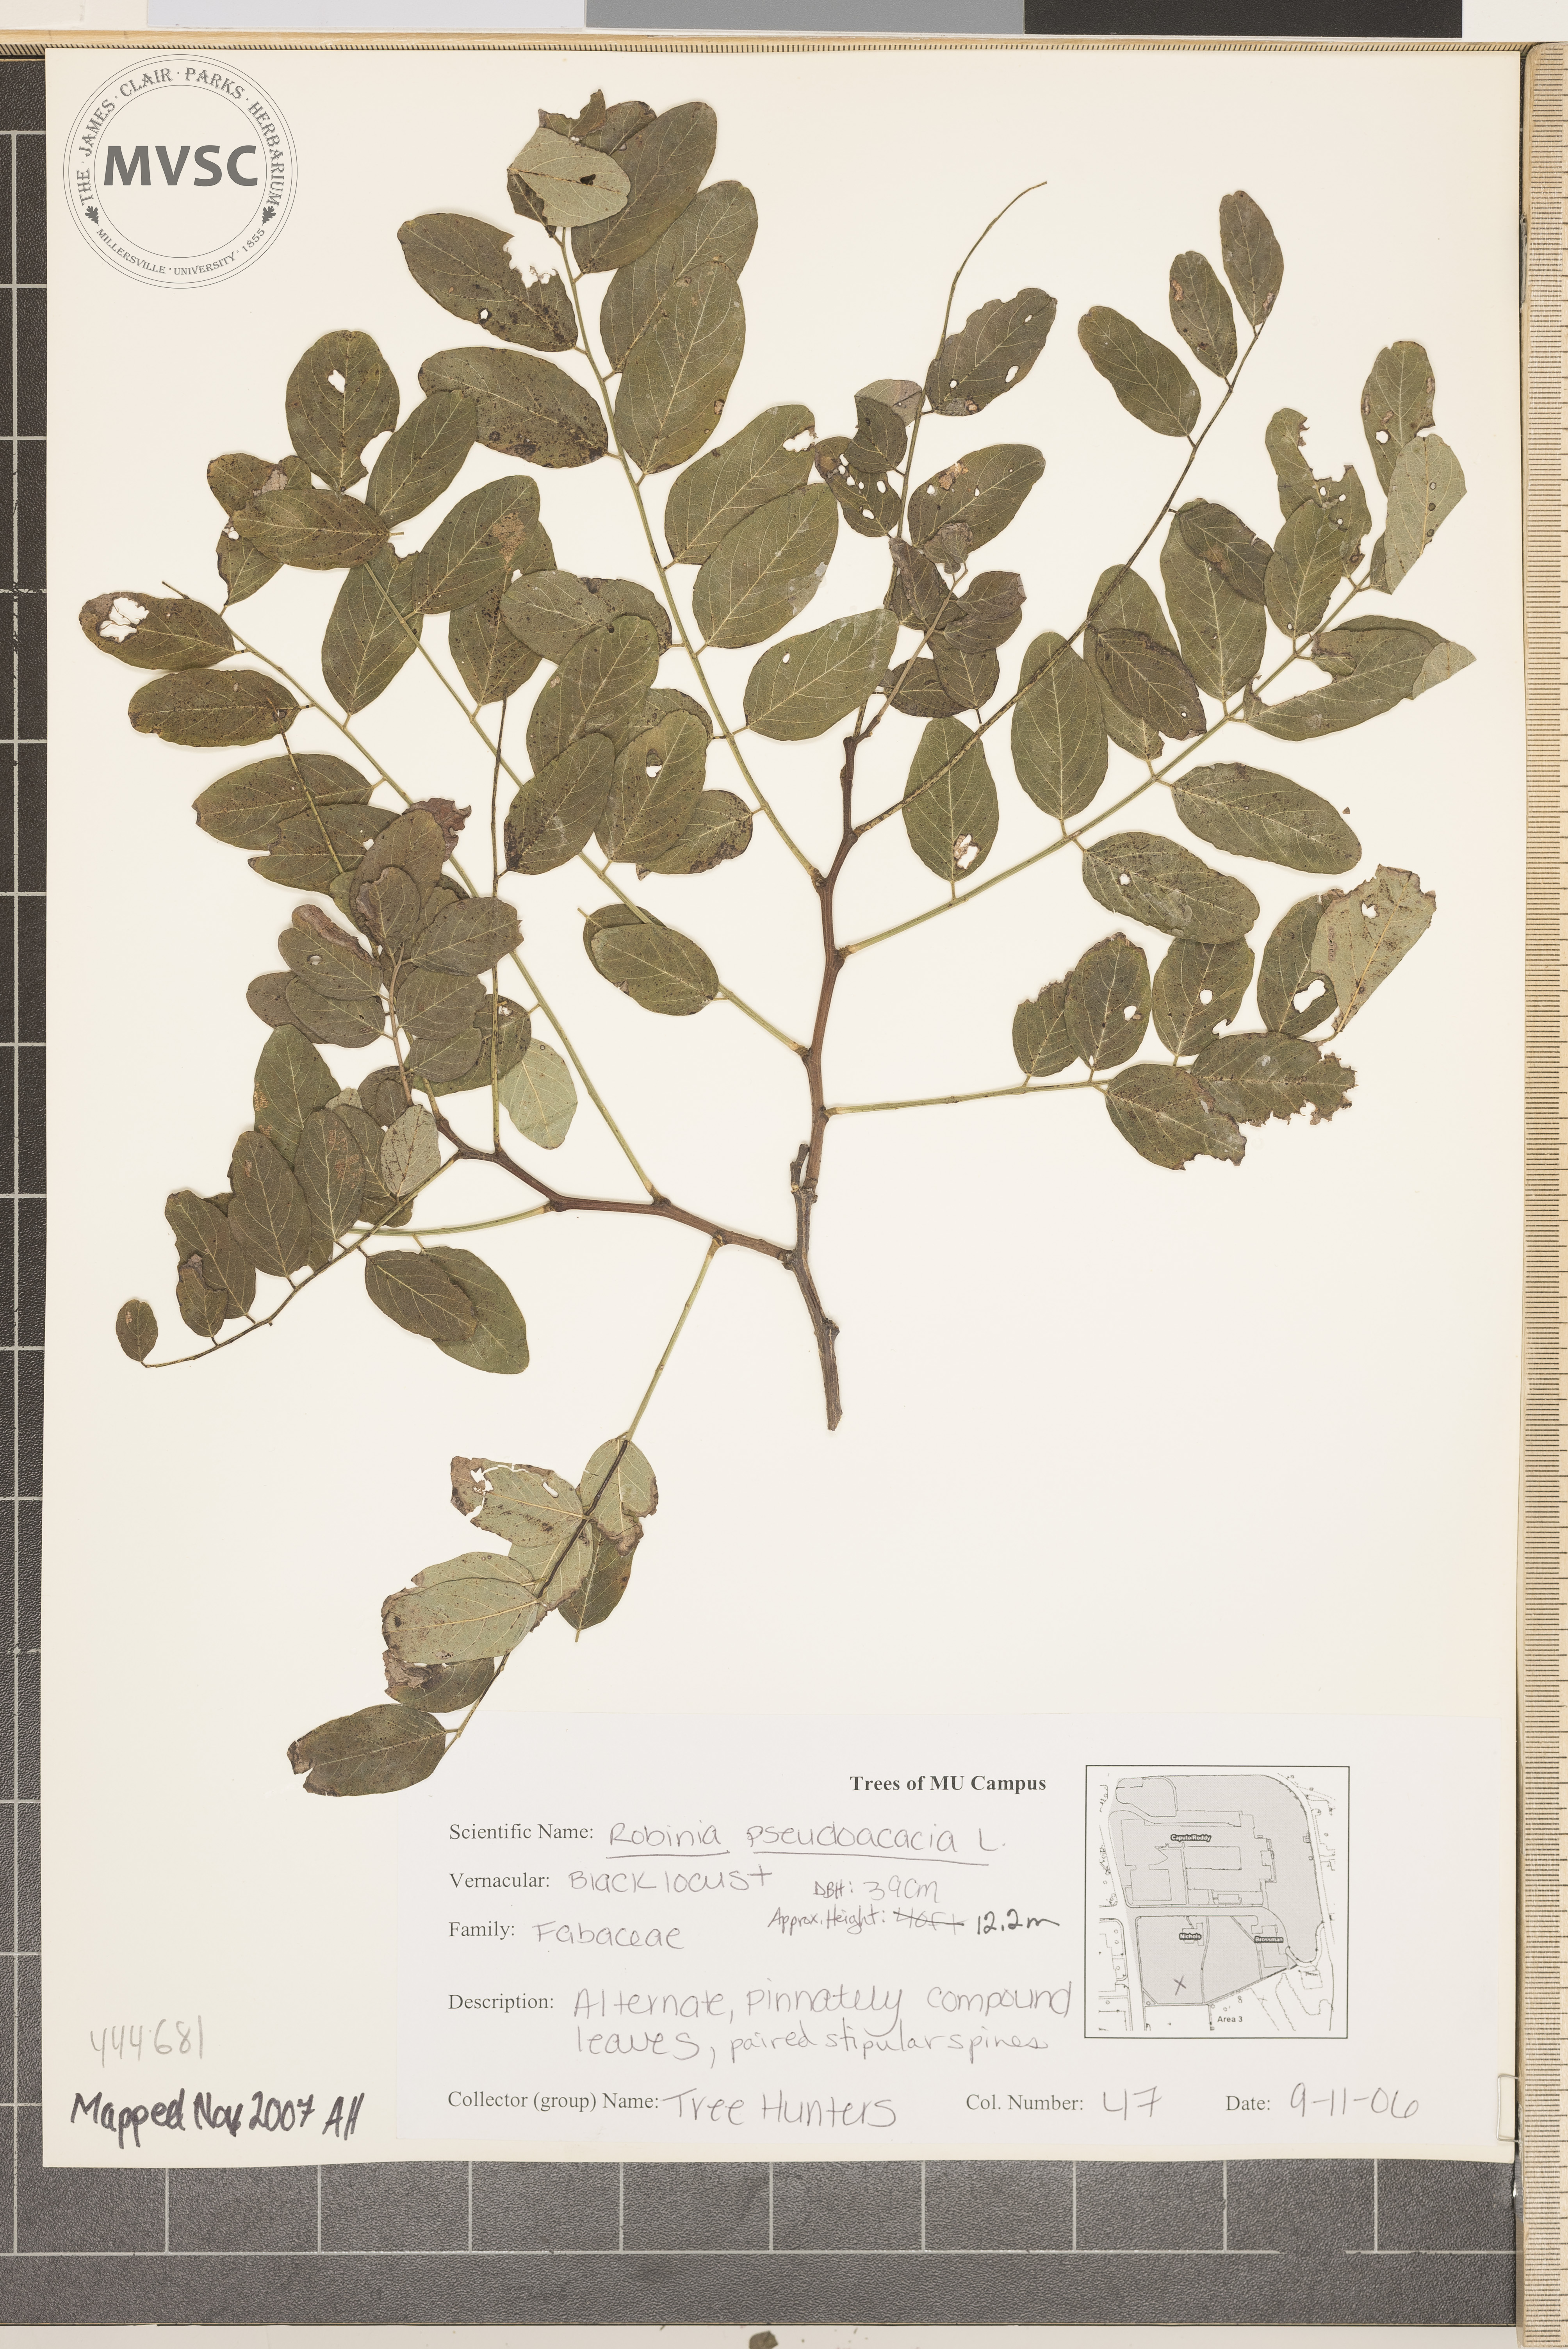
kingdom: Plantae
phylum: Tracheophyta
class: Magnoliopsida
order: Fabales
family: Fabaceae
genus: Robinia
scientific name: Robinia pseudoacacia
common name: Black locust
